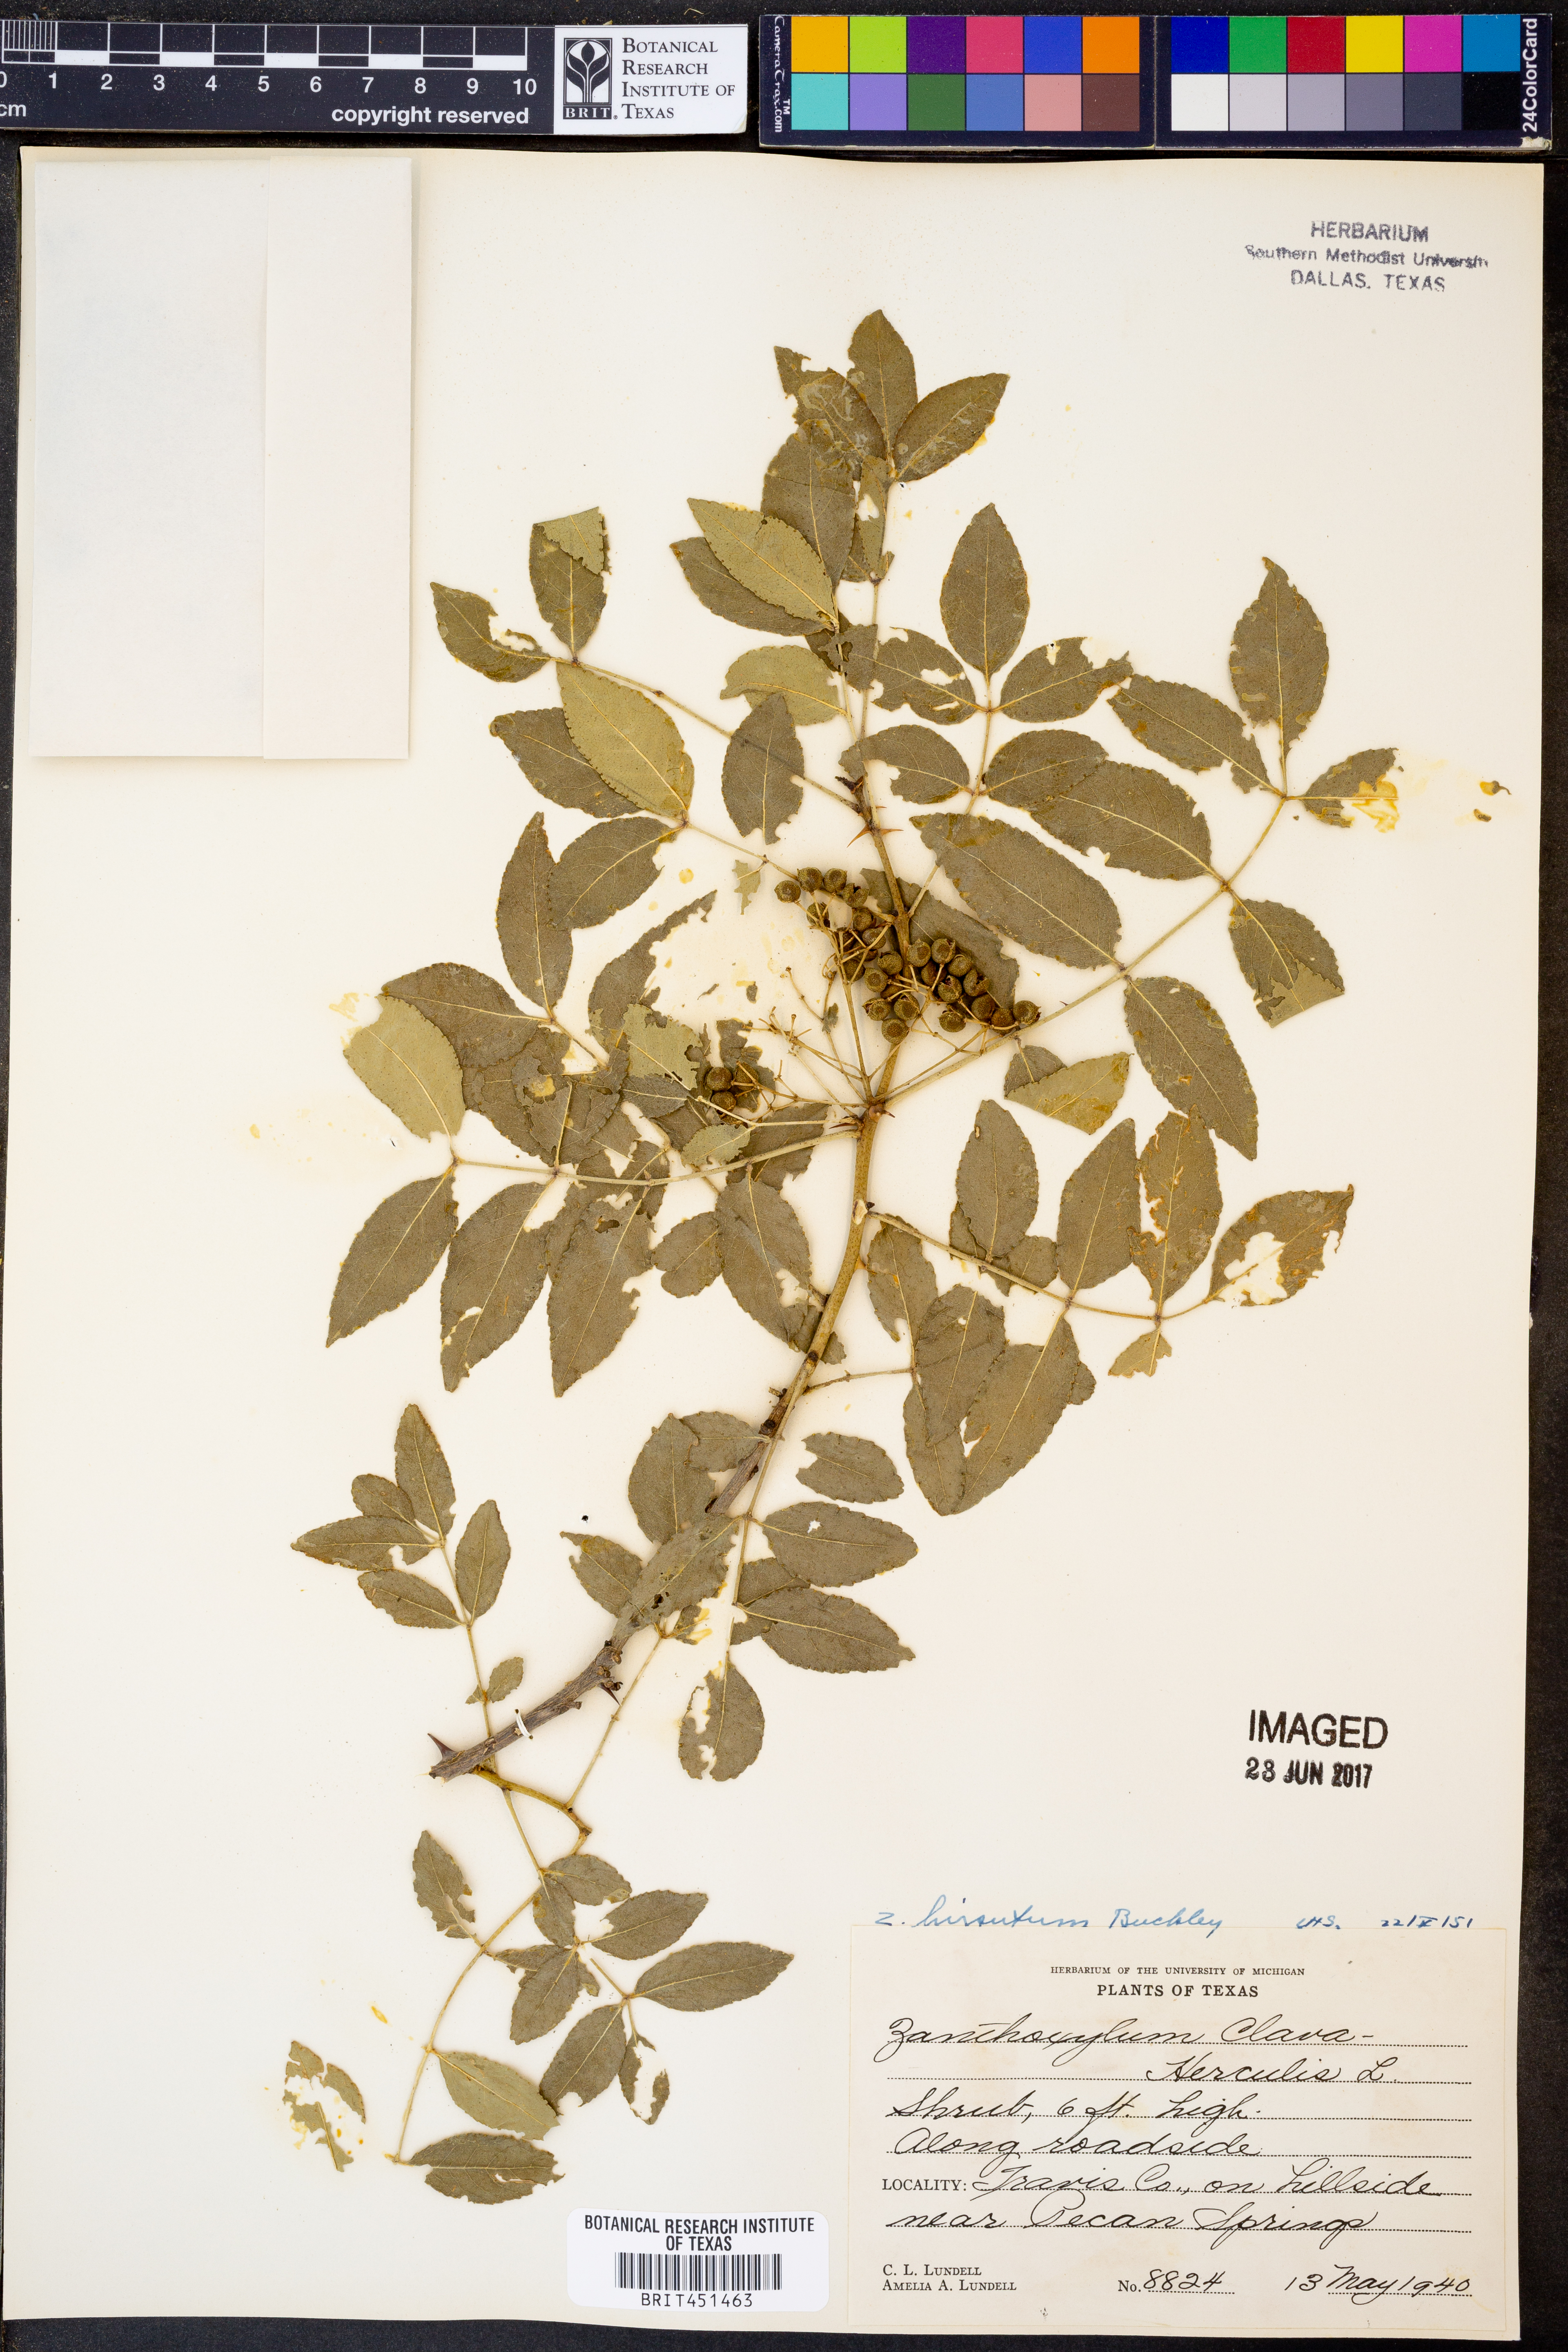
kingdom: Plantae
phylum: Tracheophyta
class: Magnoliopsida
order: Sapindales
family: Rutaceae
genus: Zanthoxylum
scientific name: Zanthoxylum clava-herculis
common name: Hercules'-club
